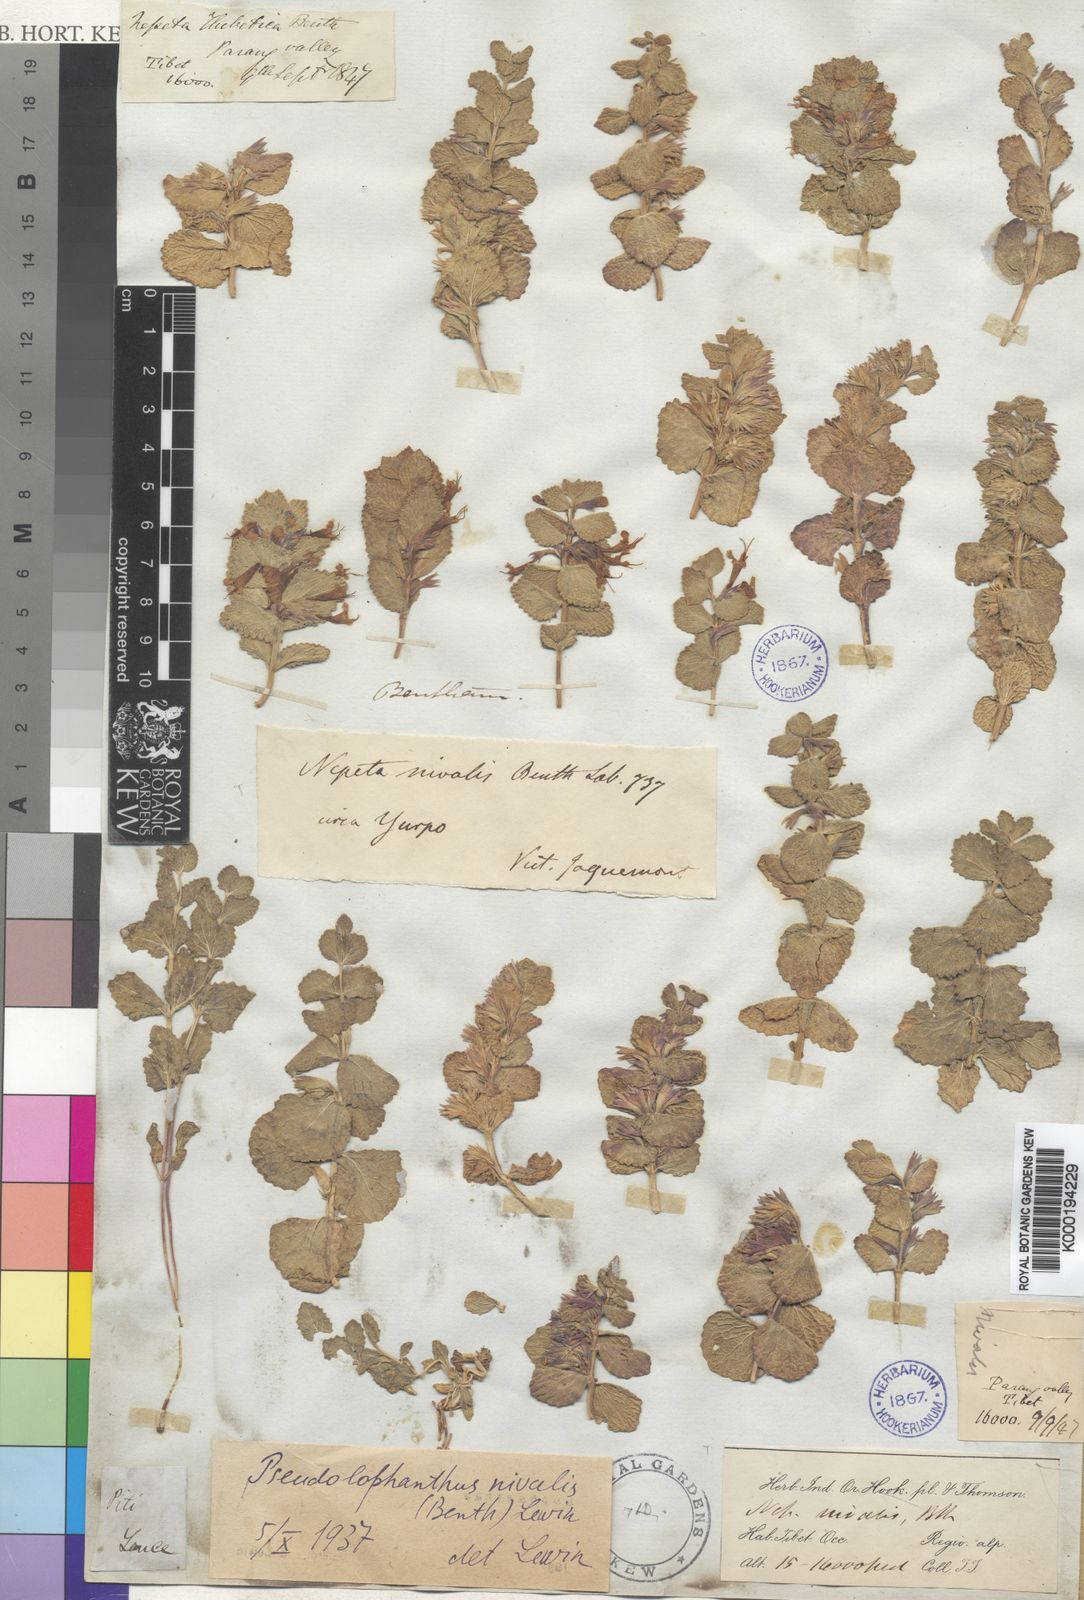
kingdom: Plantae
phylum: Tracheophyta
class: Magnoliopsida
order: Lamiales
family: Lamiaceae
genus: Nepeta
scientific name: Nepeta nivalis
